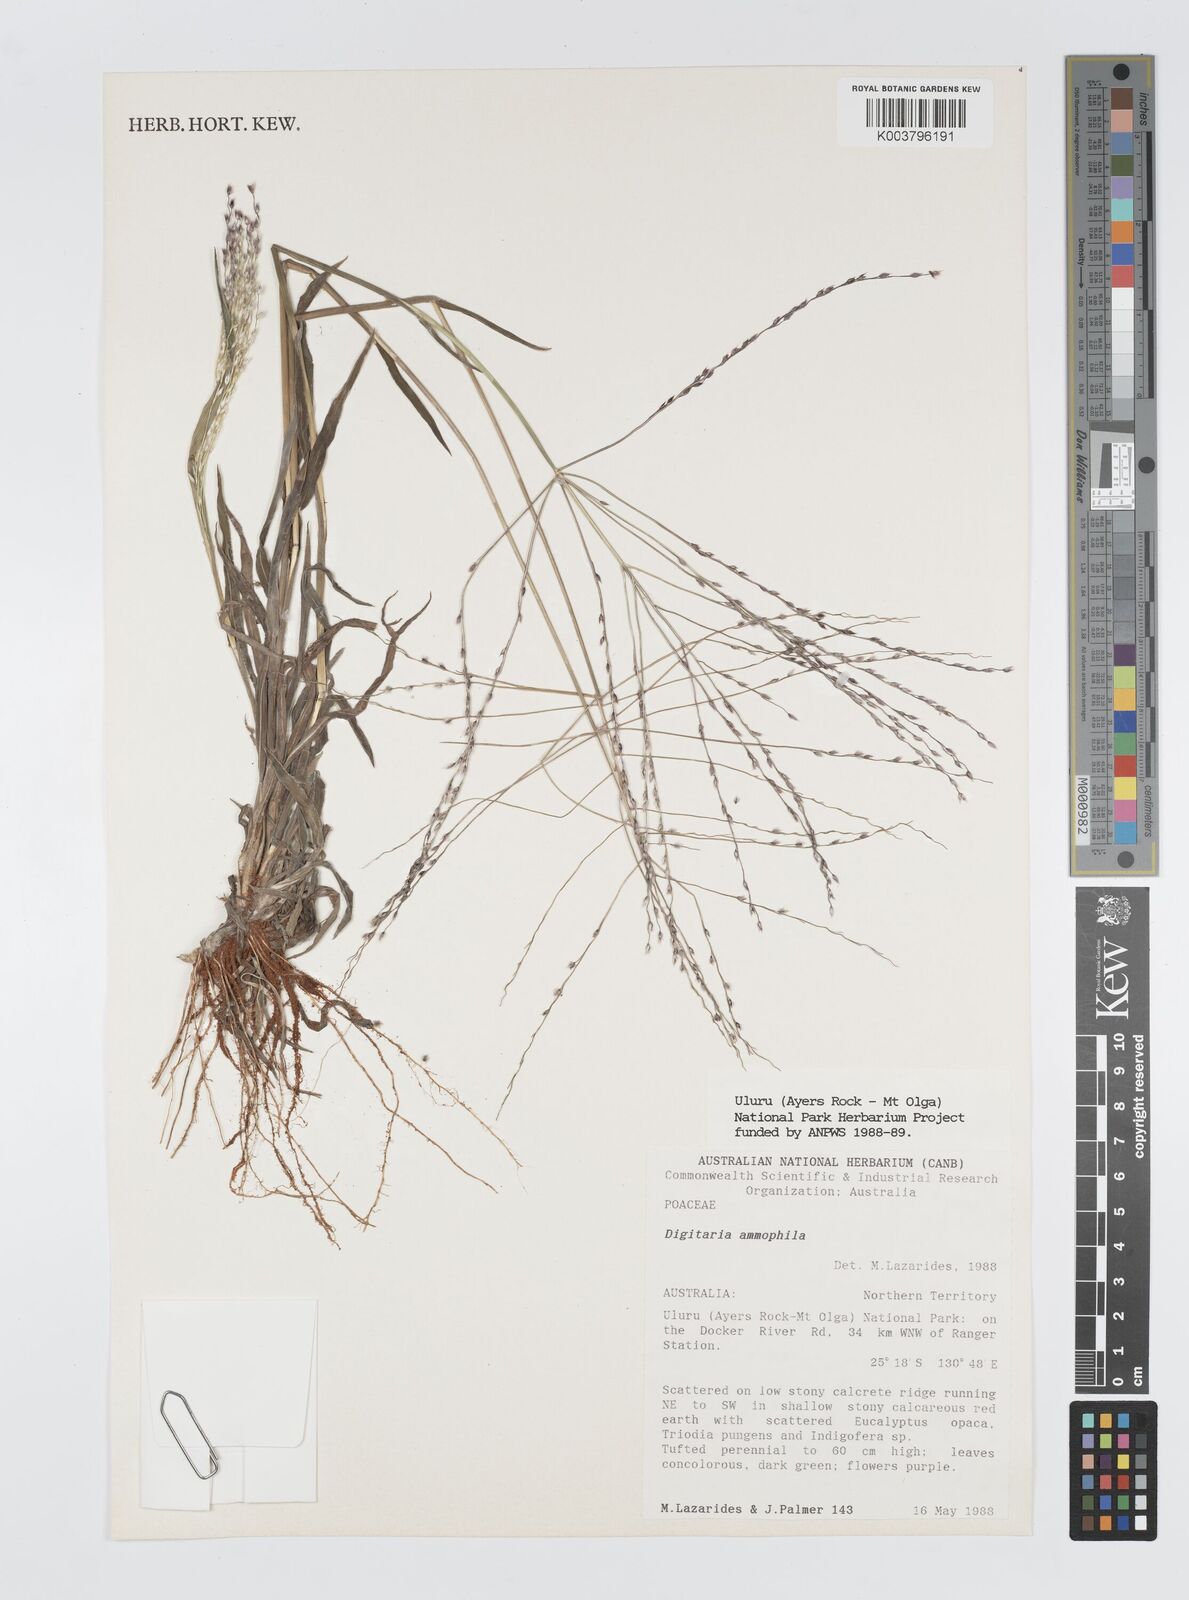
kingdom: Plantae
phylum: Tracheophyta
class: Liliopsida
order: Poales
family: Poaceae
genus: Digitaria
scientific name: Digitaria ammophila
